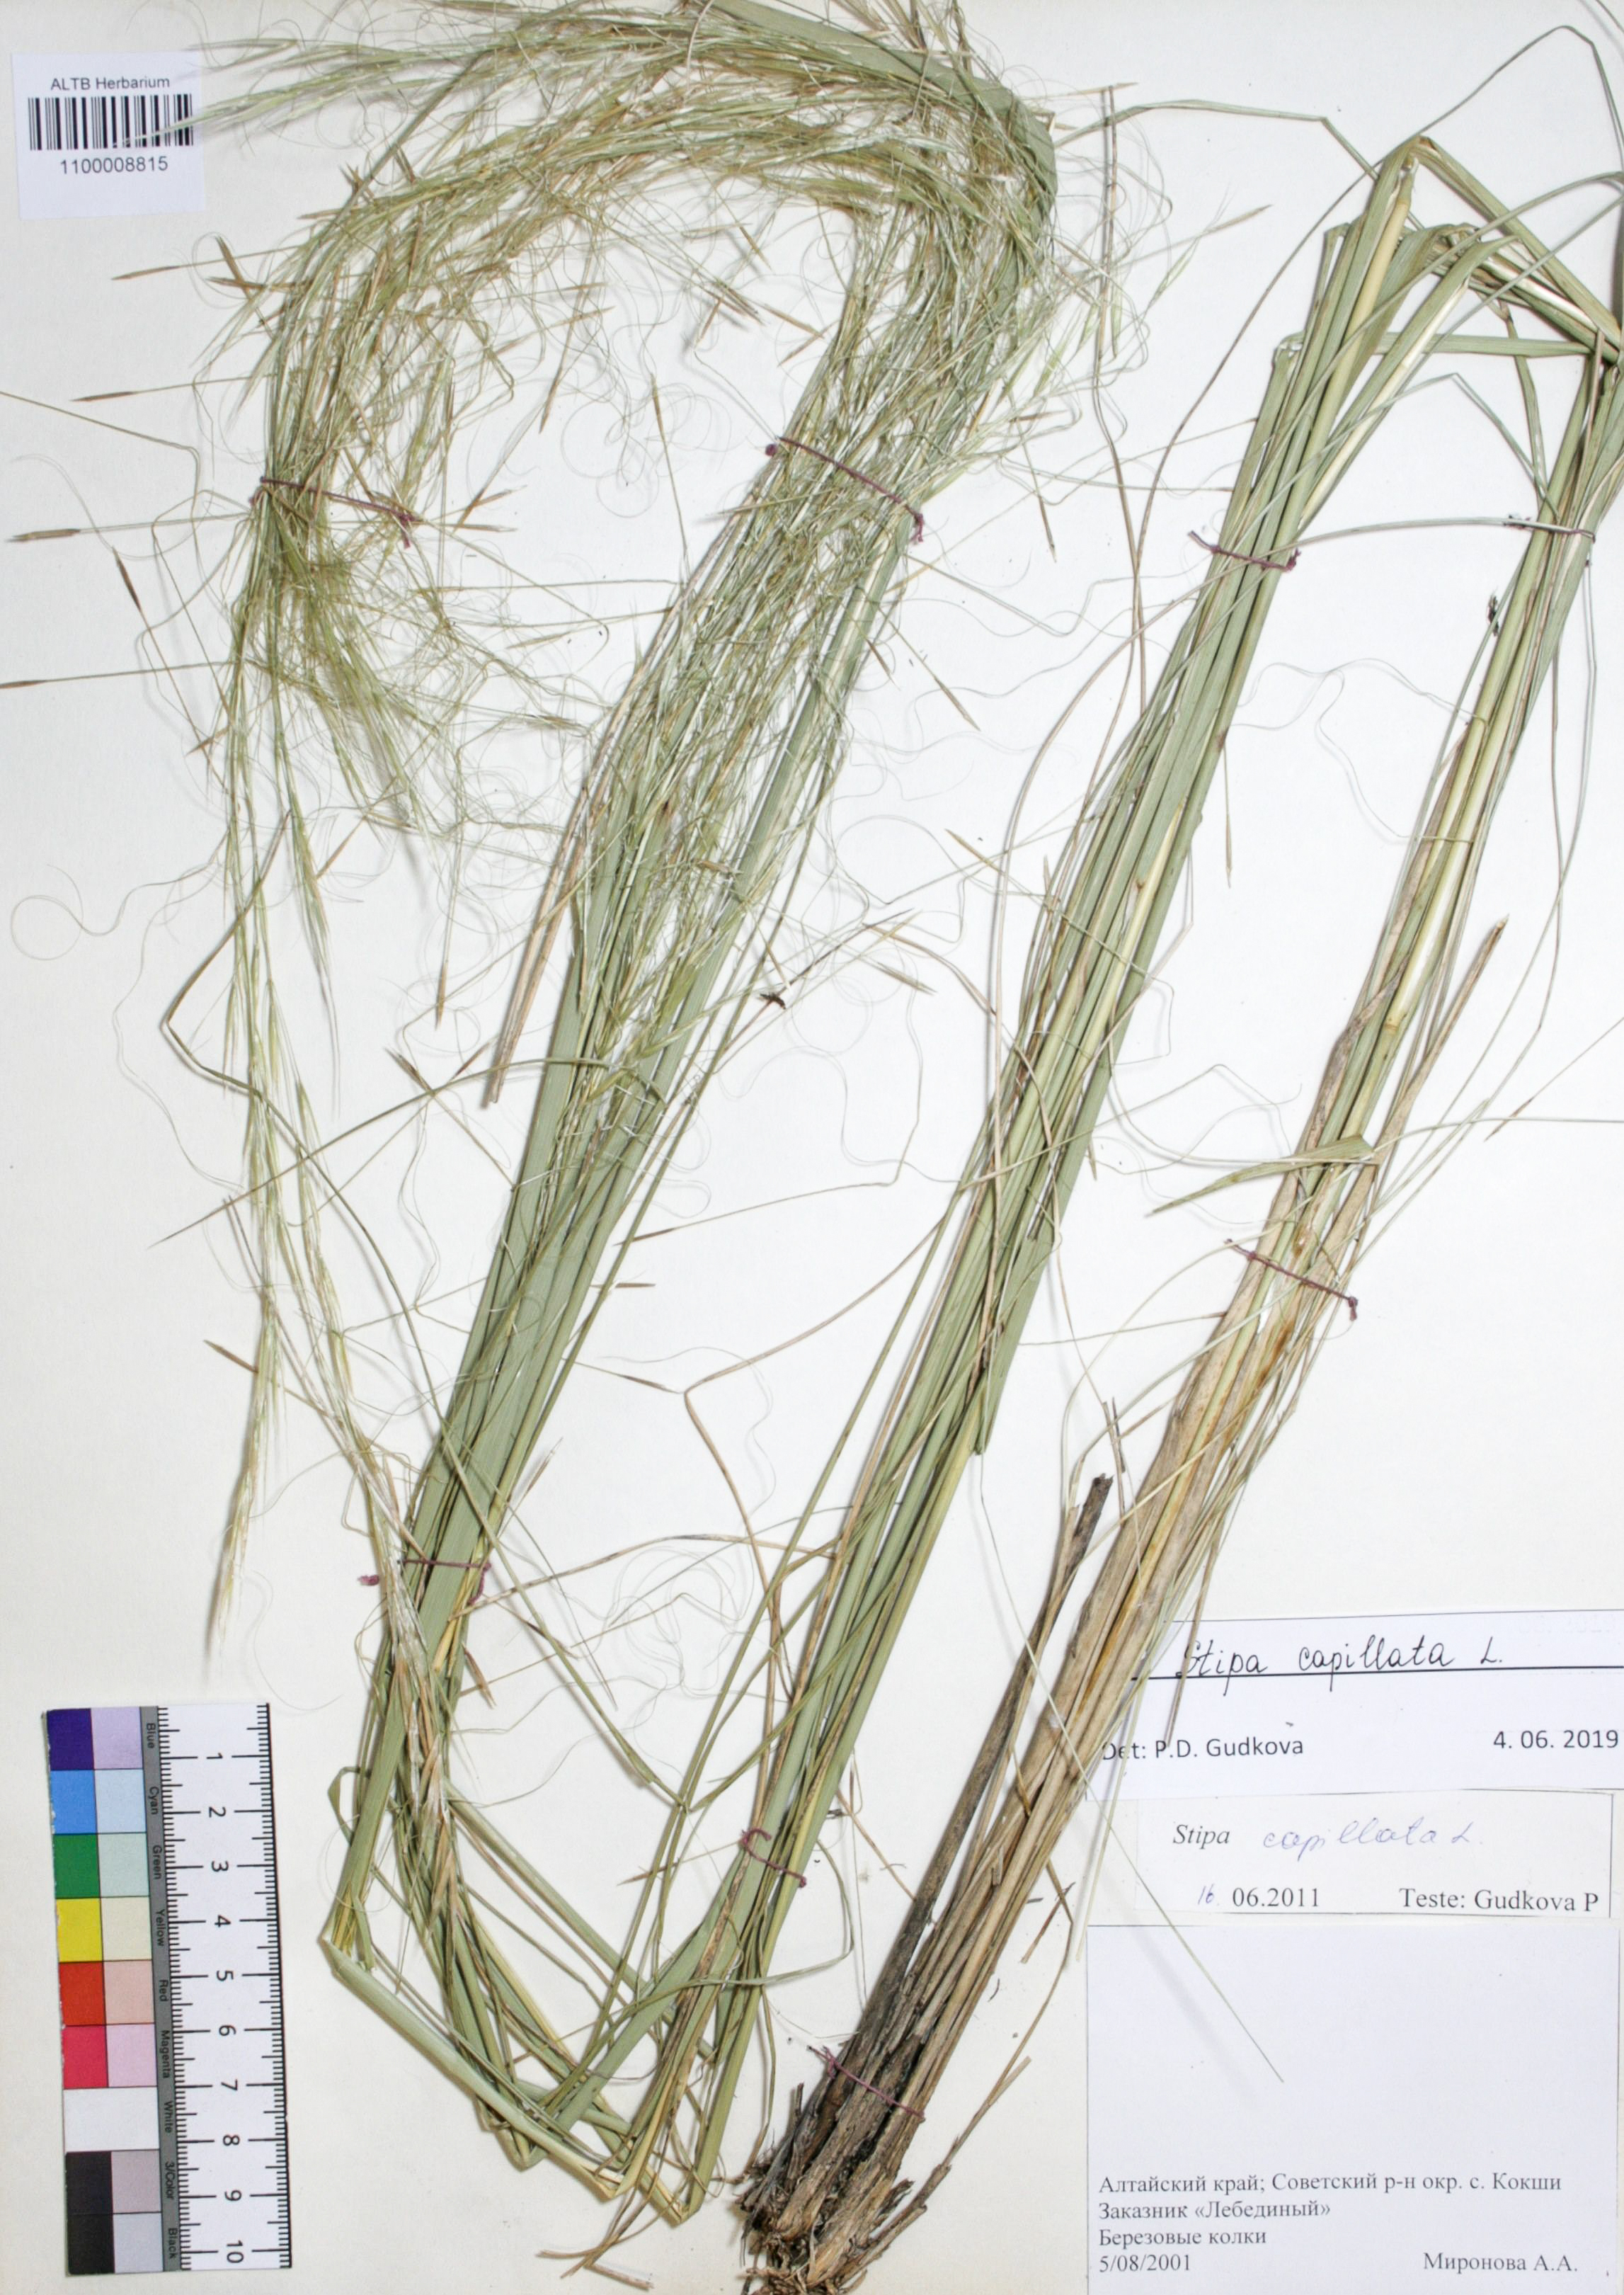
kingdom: Plantae
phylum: Tracheophyta
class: Liliopsida
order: Poales
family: Poaceae
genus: Stipa
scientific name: Stipa capillata
